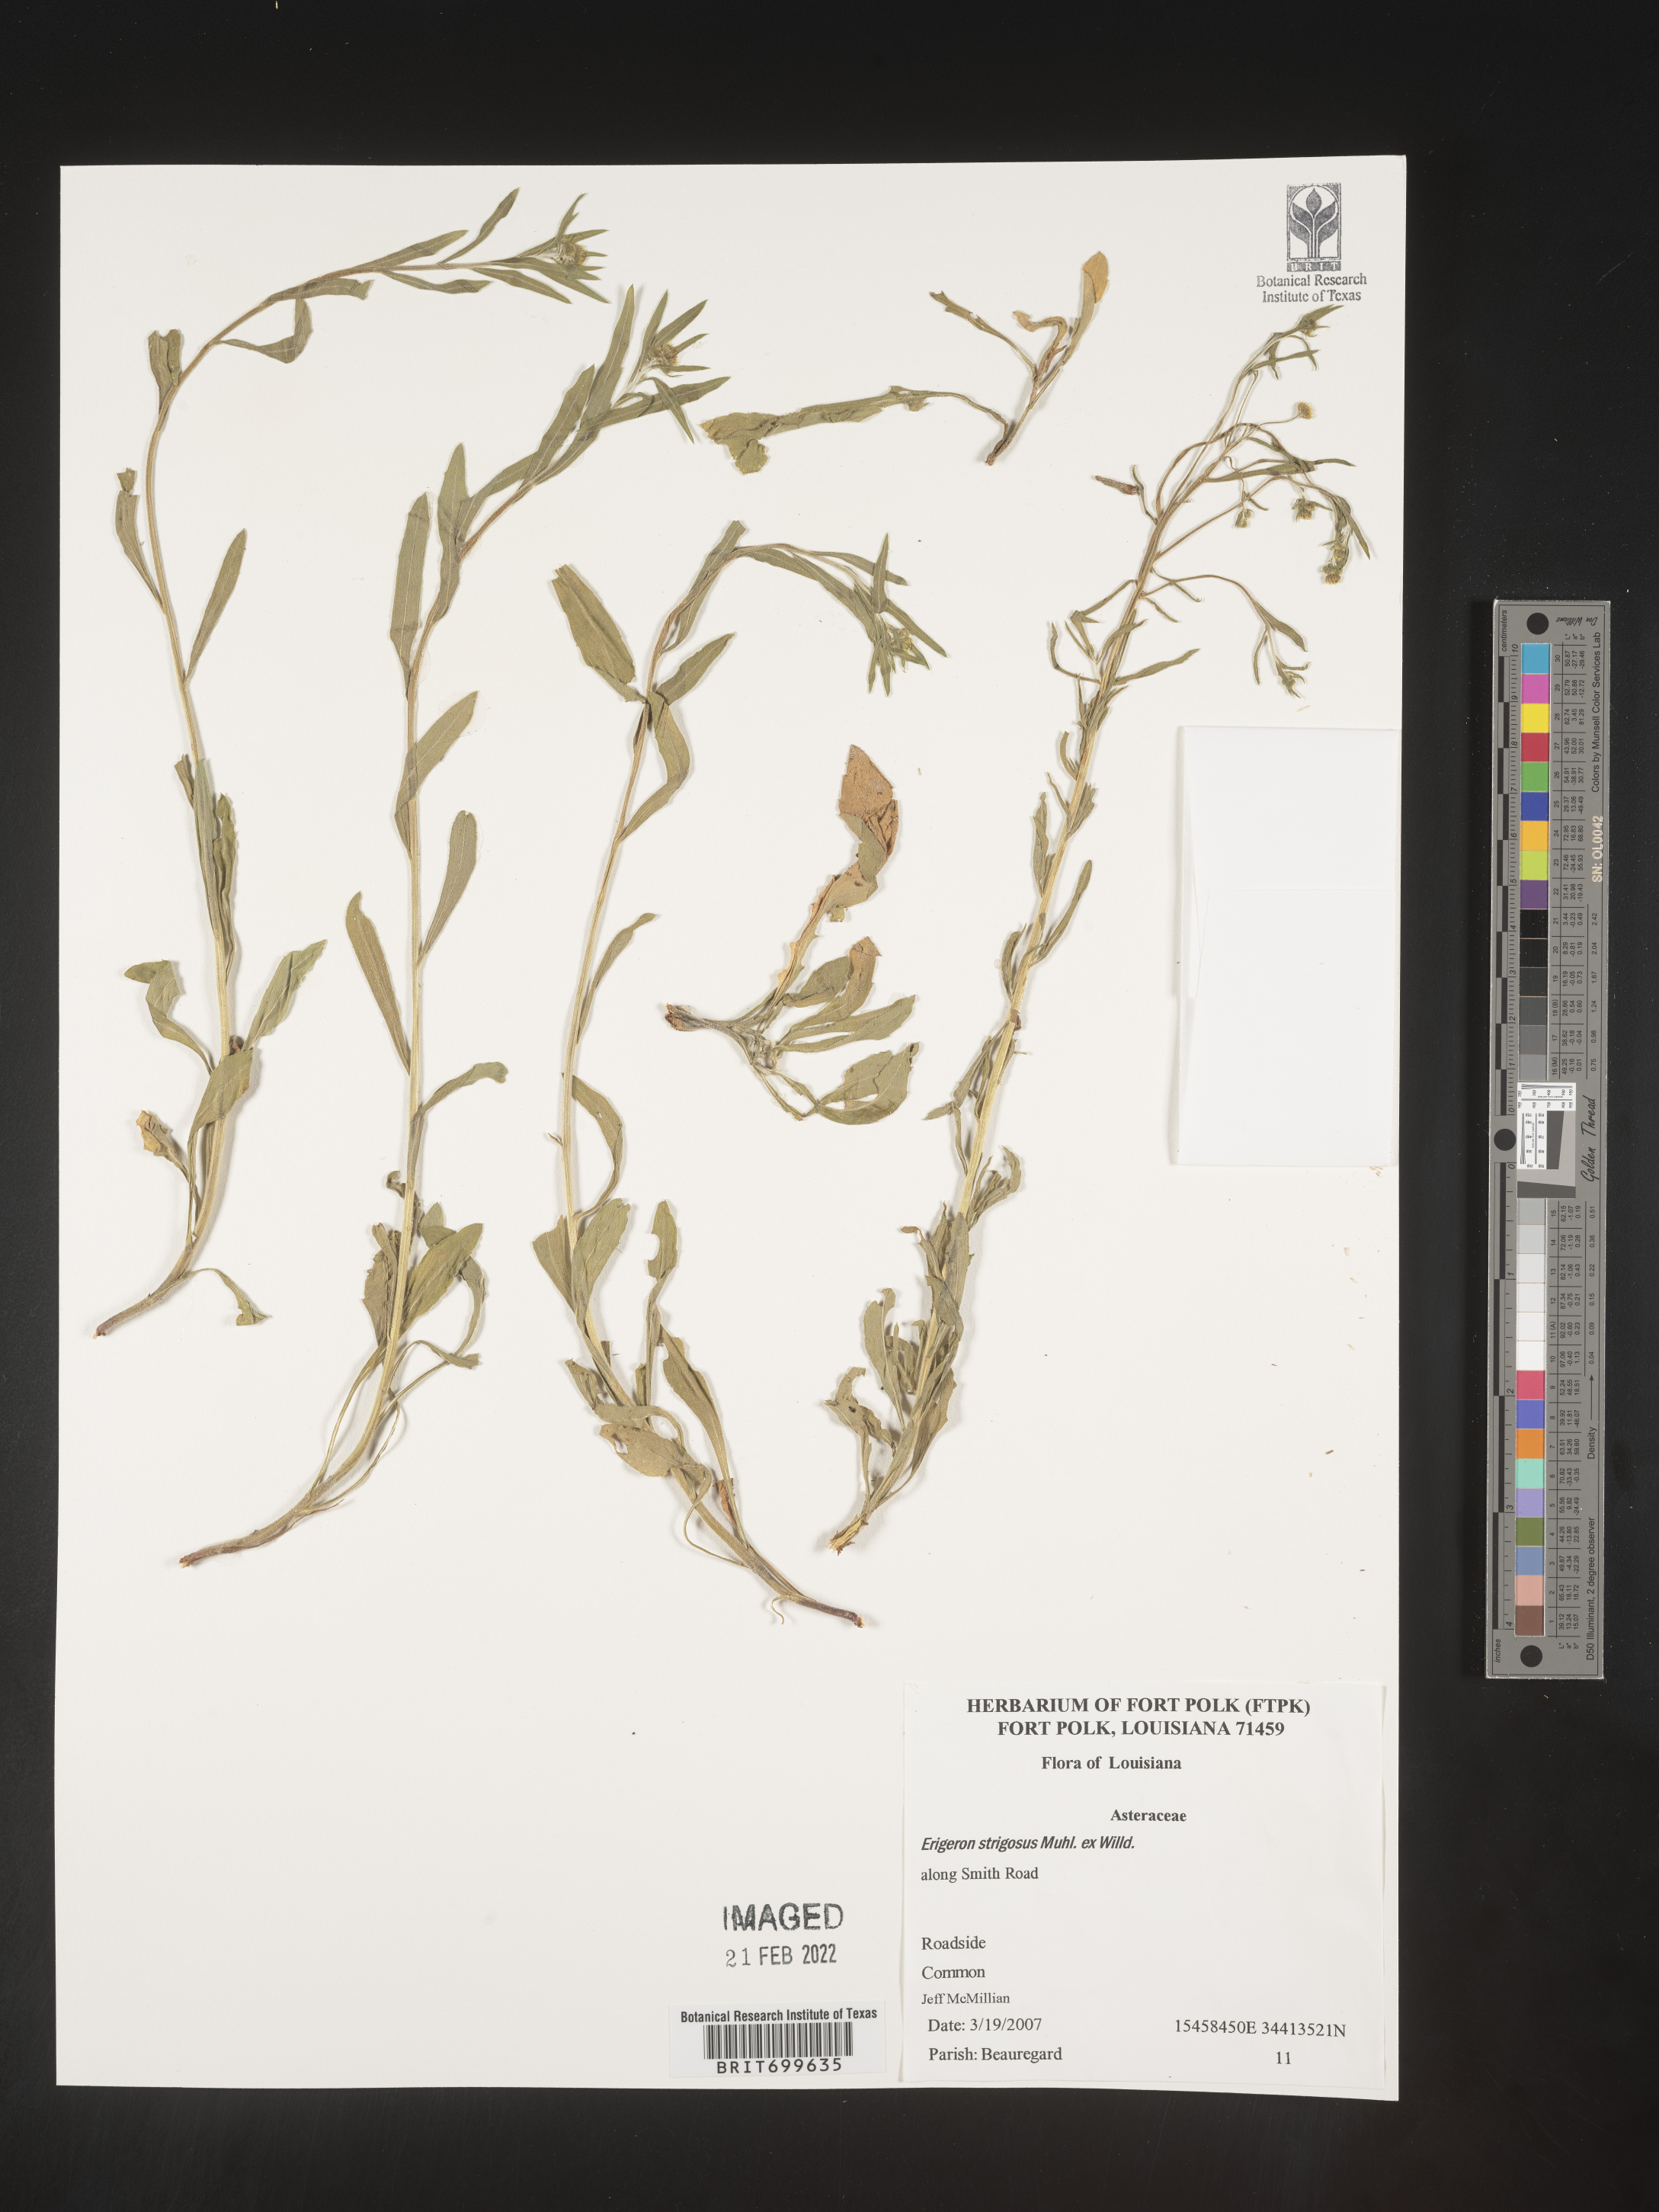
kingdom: Plantae
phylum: Tracheophyta
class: Magnoliopsida
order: Asterales
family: Asteraceae
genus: Erigeron
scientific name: Erigeron strigosus
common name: Common eastern fleabane
